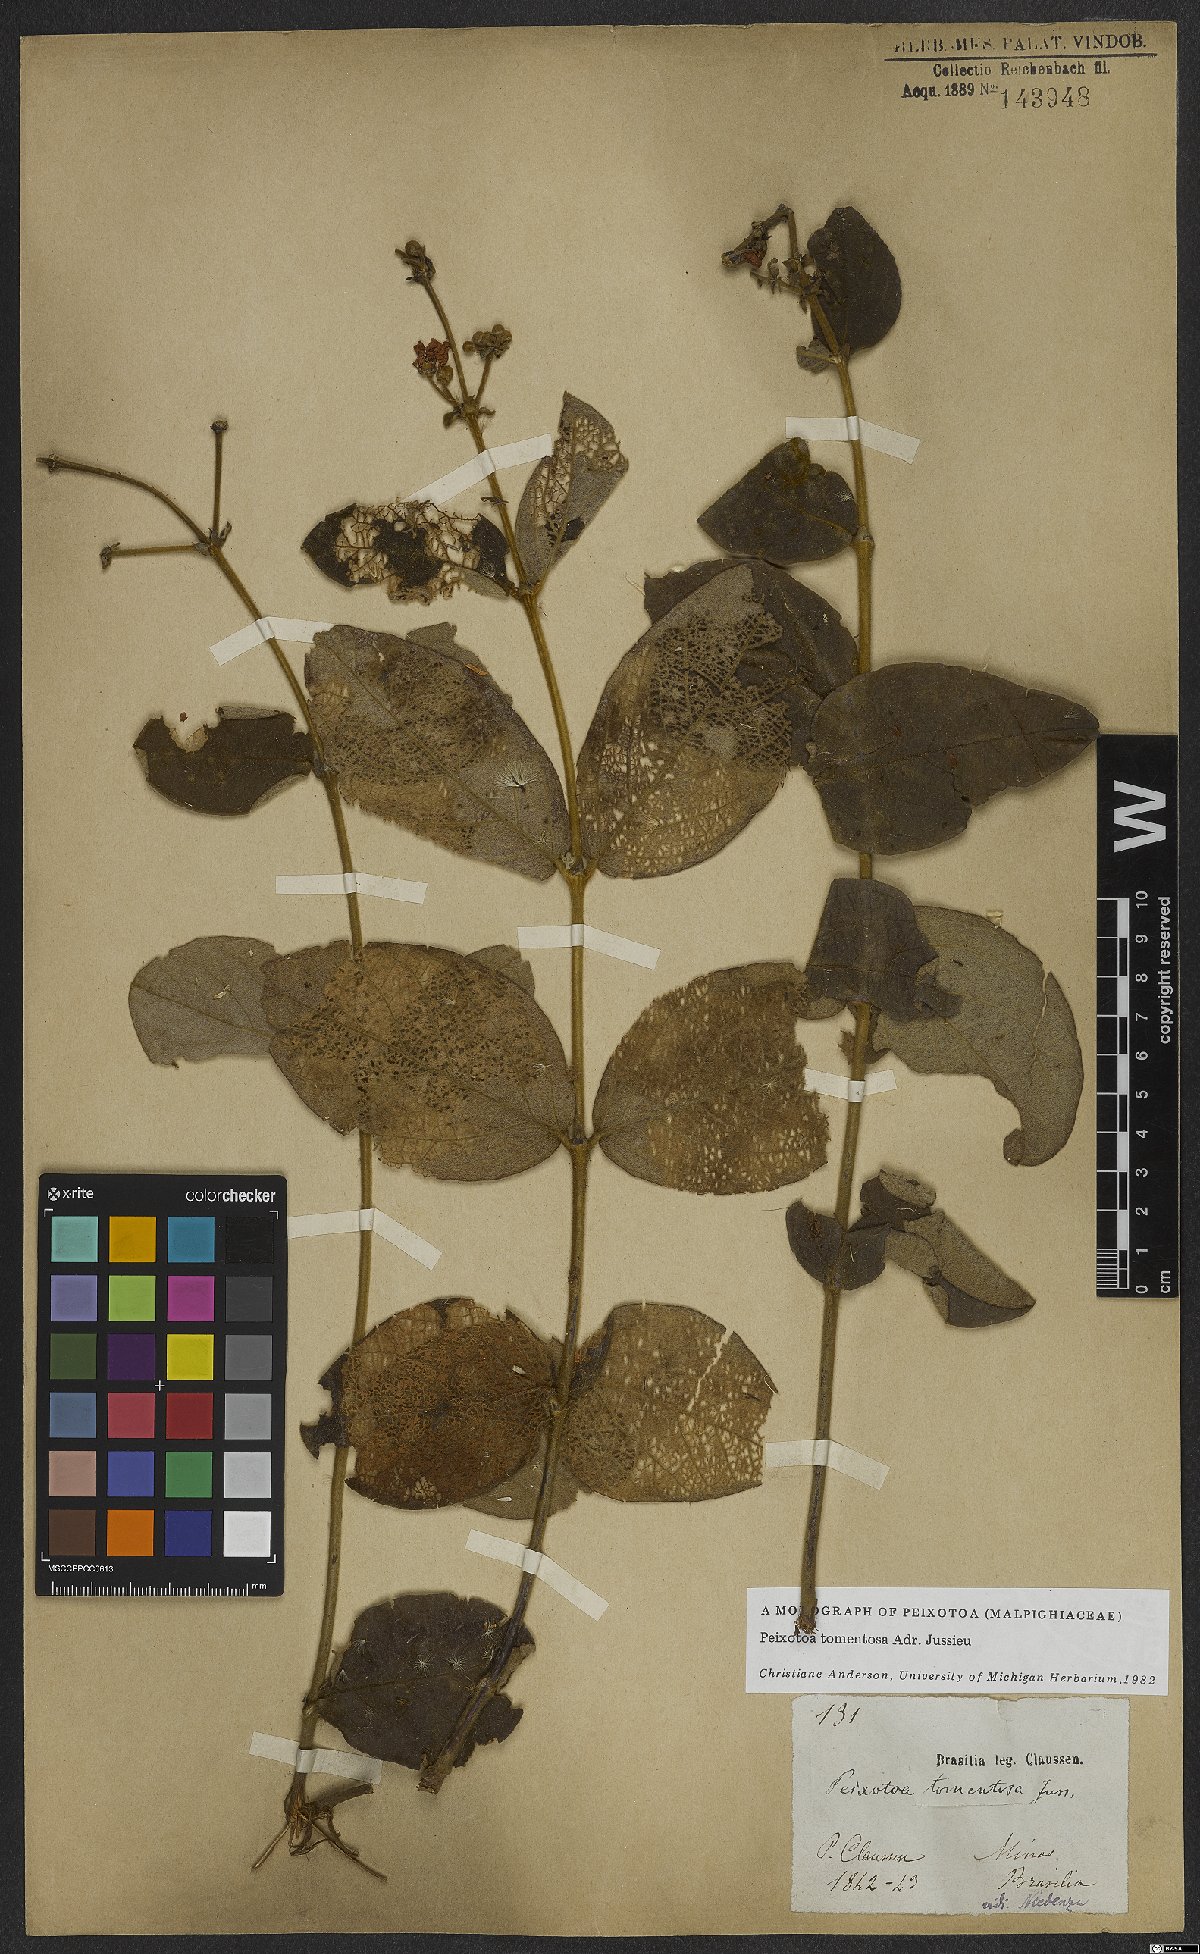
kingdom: Plantae
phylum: Tracheophyta
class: Magnoliopsida
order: Malpighiales
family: Malpighiaceae
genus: Peixotoa
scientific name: Peixotoa tomentosa
